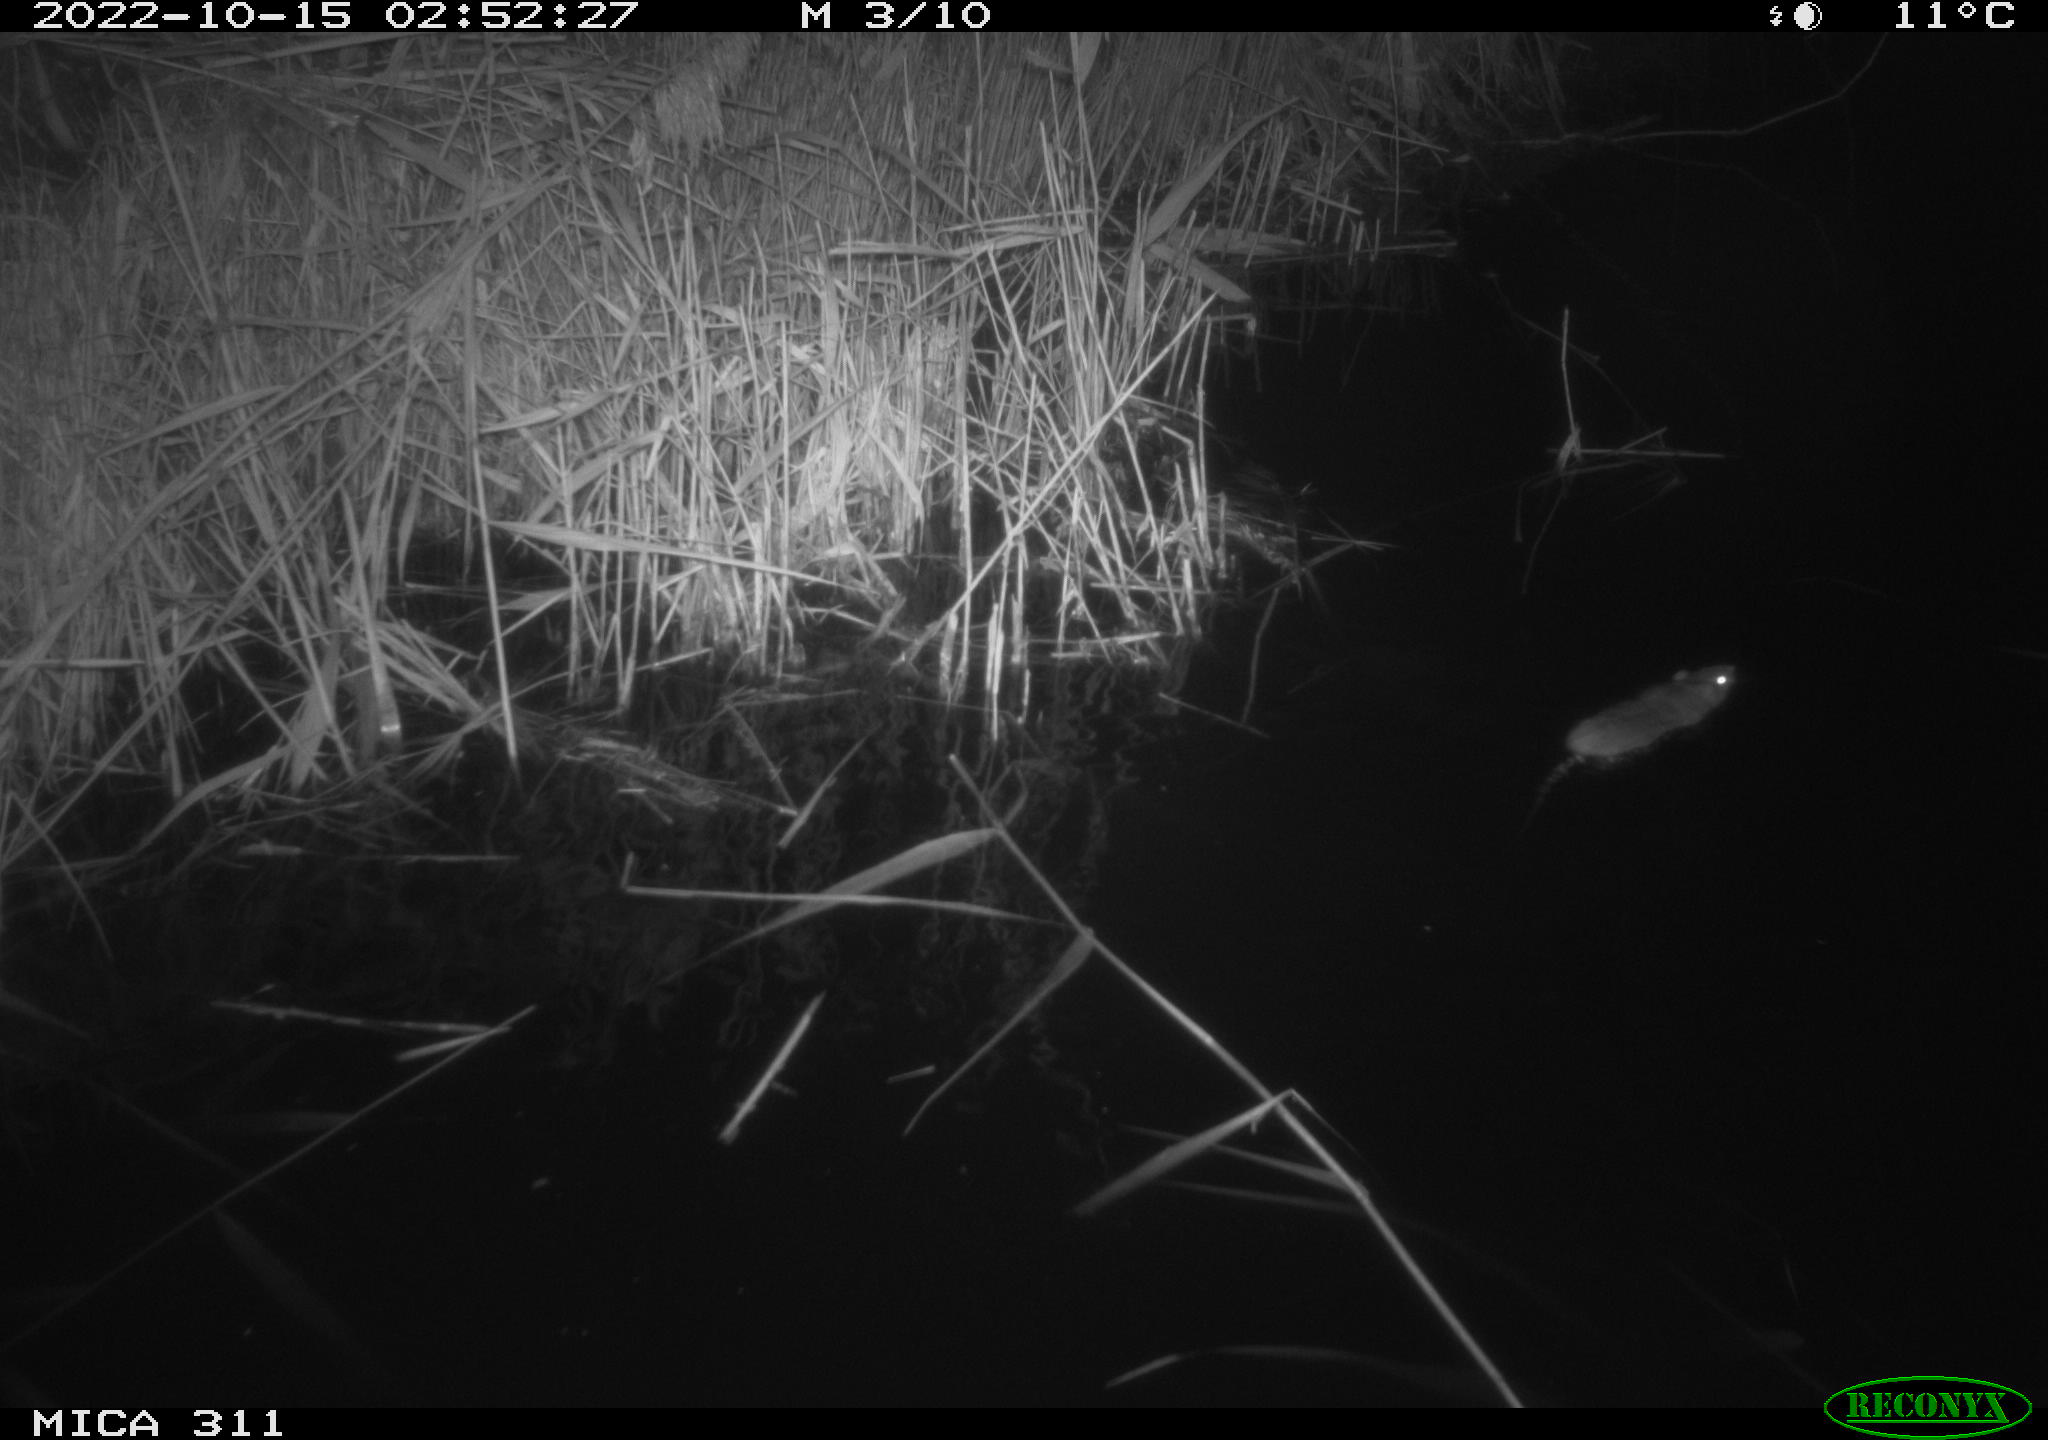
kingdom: Animalia
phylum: Chordata
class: Mammalia
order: Rodentia
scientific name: Rodentia
